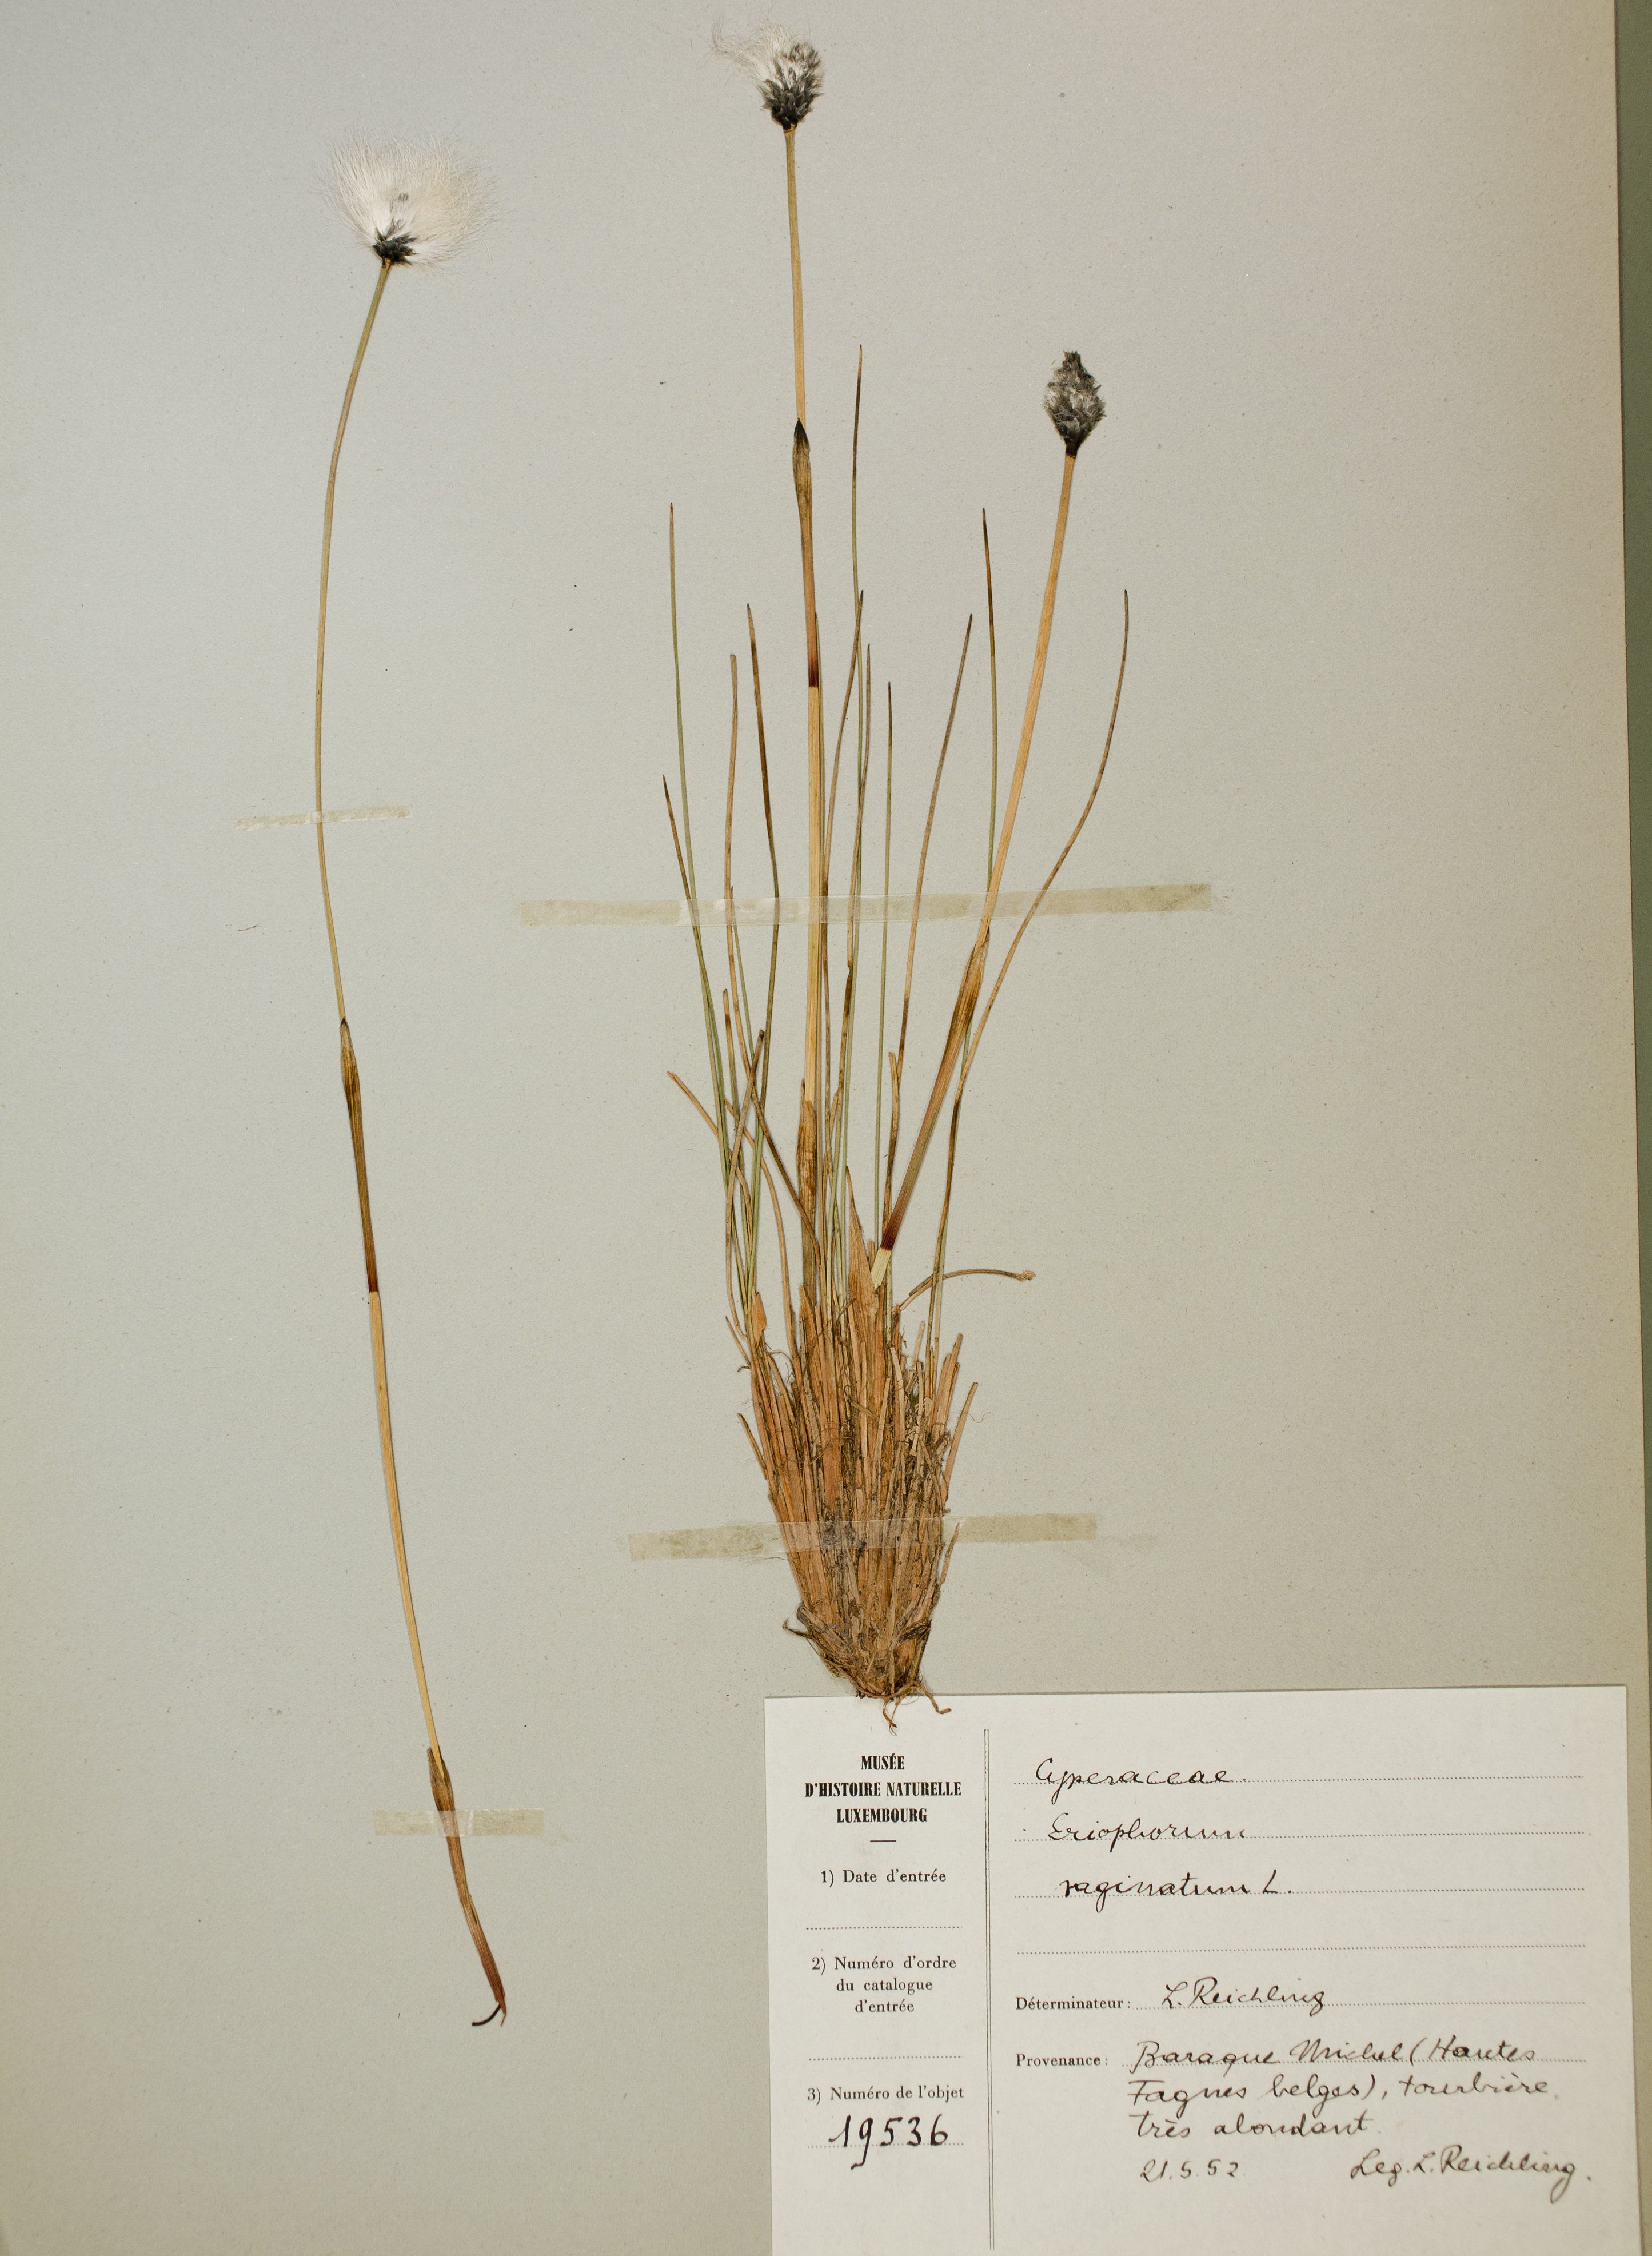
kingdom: Plantae
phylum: Tracheophyta
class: Liliopsida
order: Poales
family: Cyperaceae
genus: Eriophorum
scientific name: Eriophorum vaginatum
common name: Hare's-tail cottongrass
